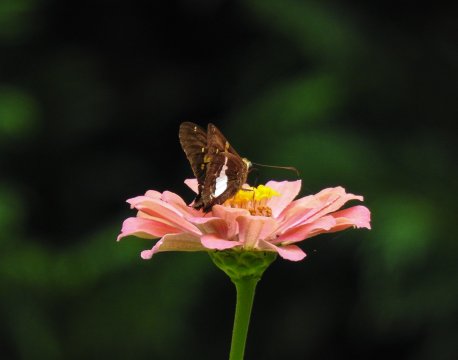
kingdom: Animalia
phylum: Arthropoda
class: Insecta
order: Lepidoptera
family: Hesperiidae
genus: Epargyreus
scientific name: Epargyreus clarus
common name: Silver-spotted Skipper
